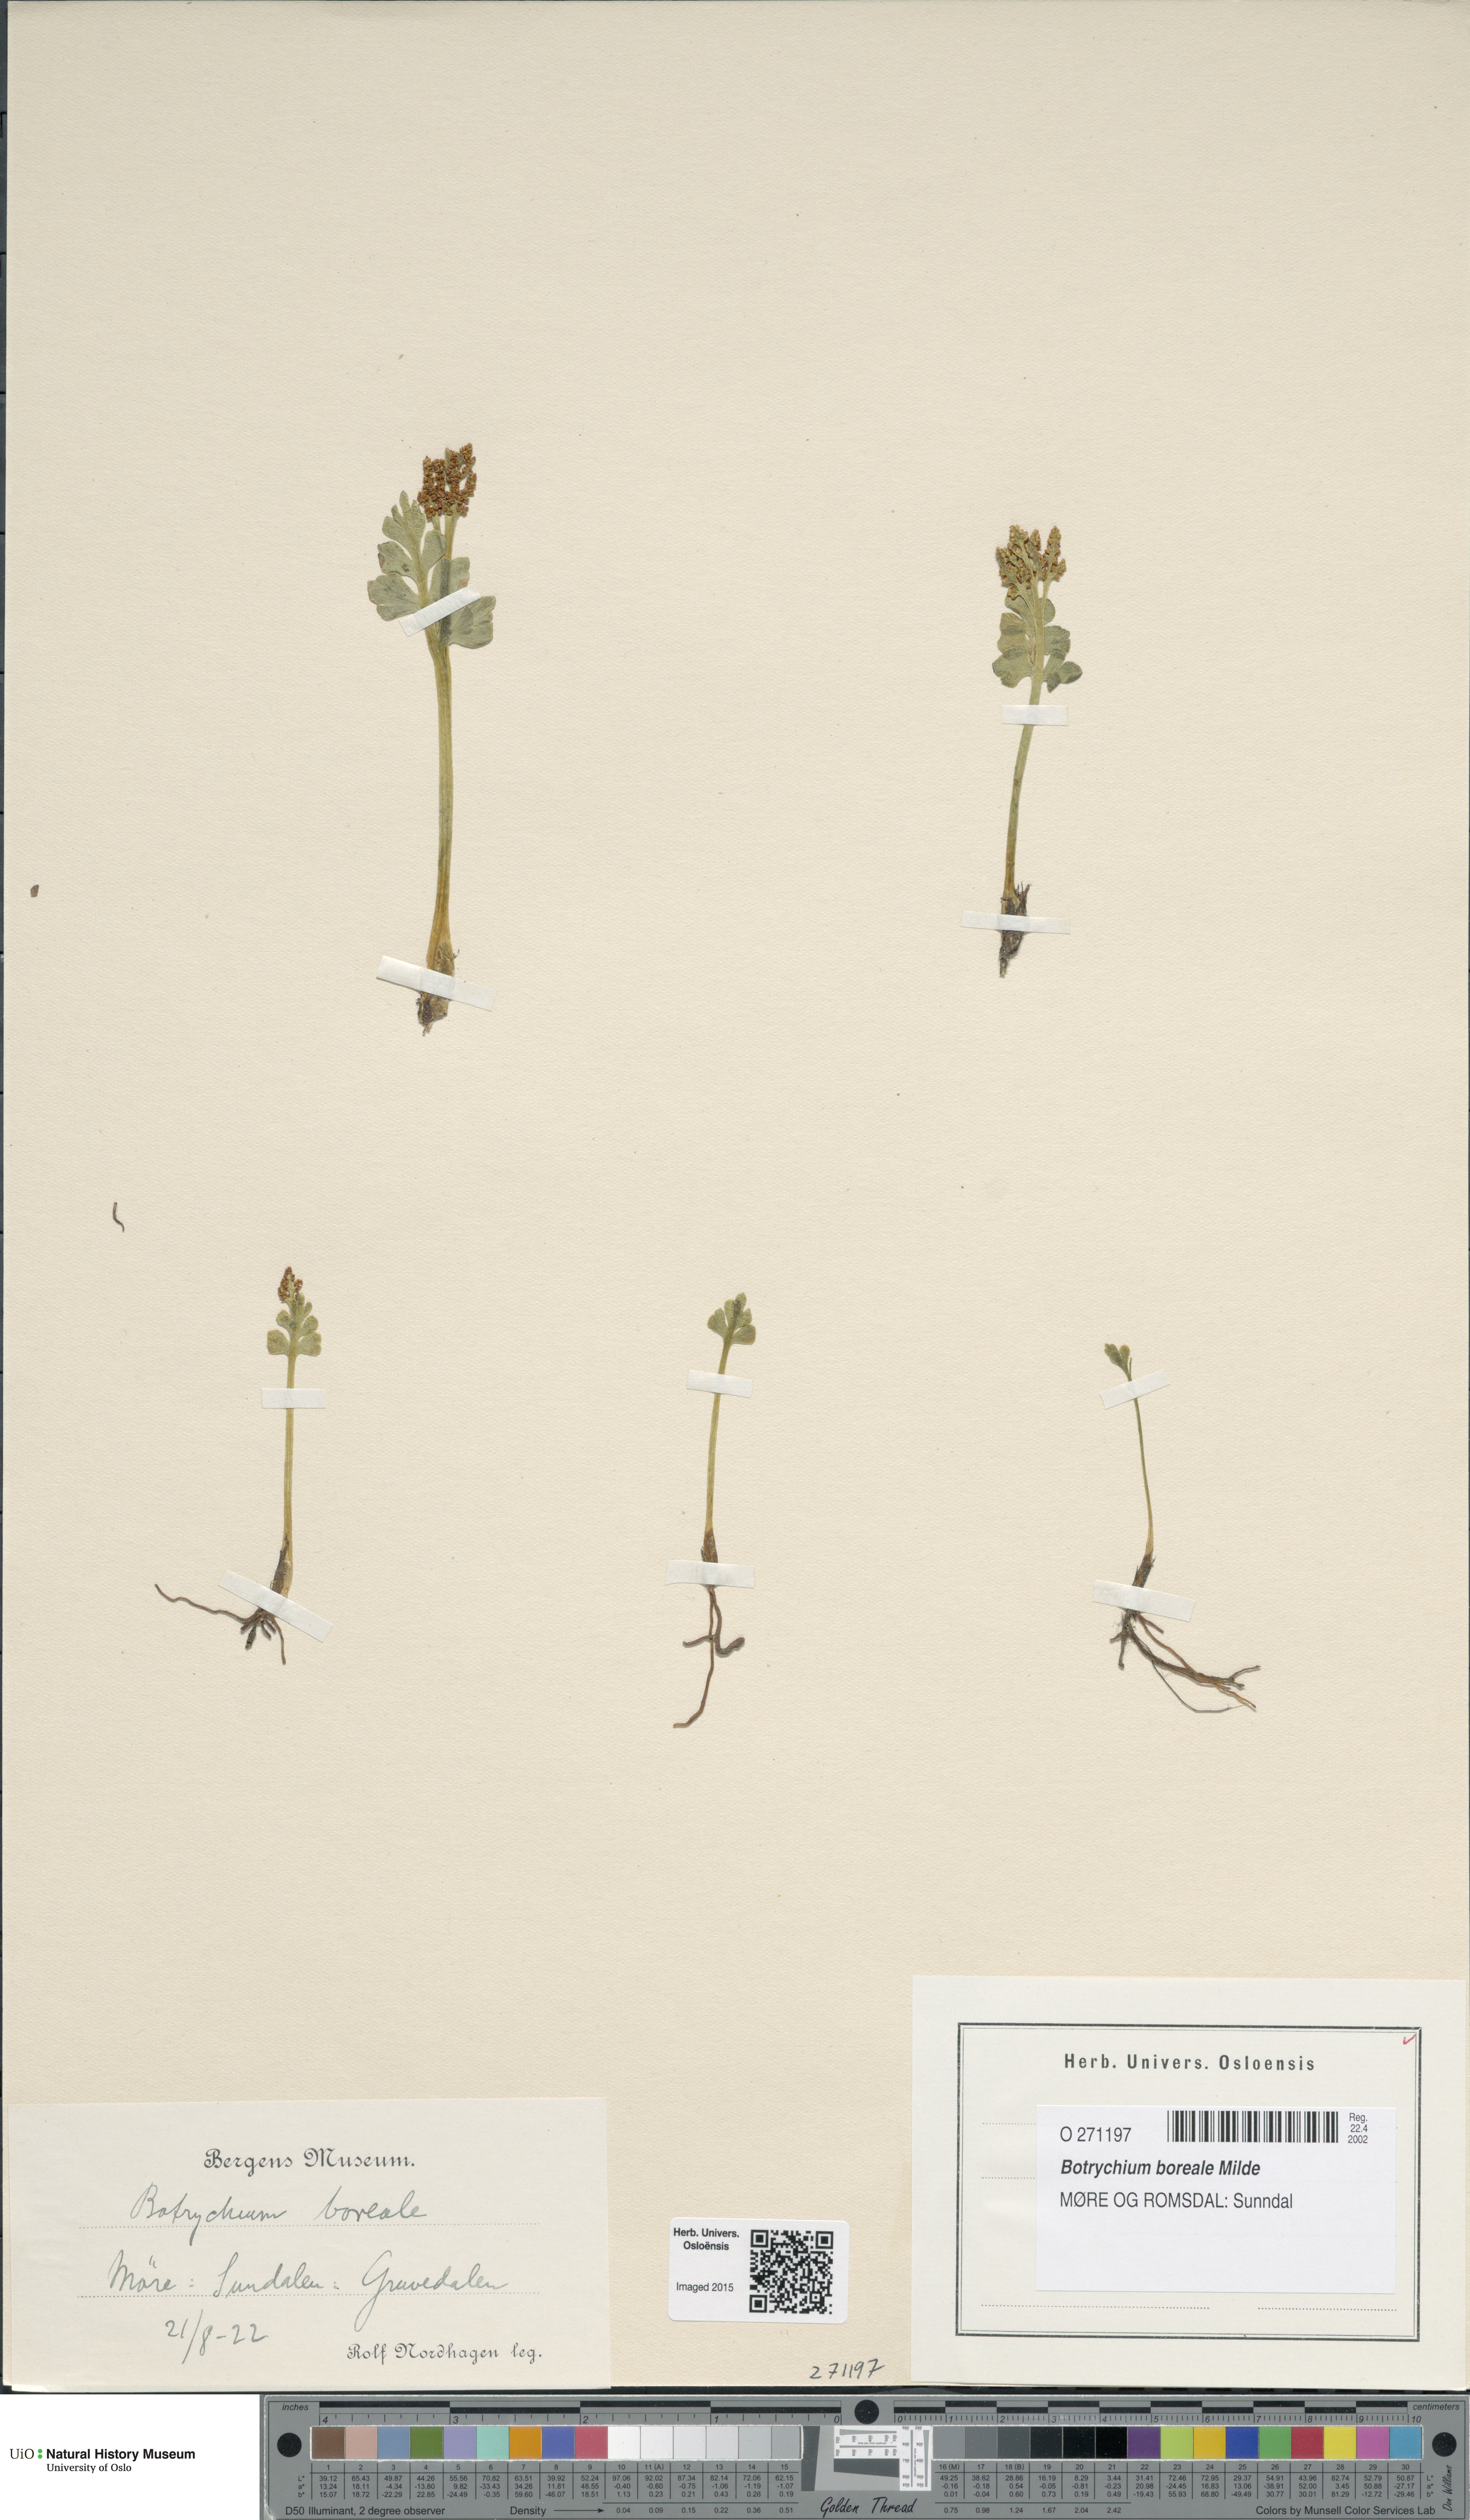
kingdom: Plantae
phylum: Tracheophyta
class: Polypodiopsida
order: Ophioglossales
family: Ophioglossaceae
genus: Botrychium
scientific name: Botrychium boreale
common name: Boreal moonwort
